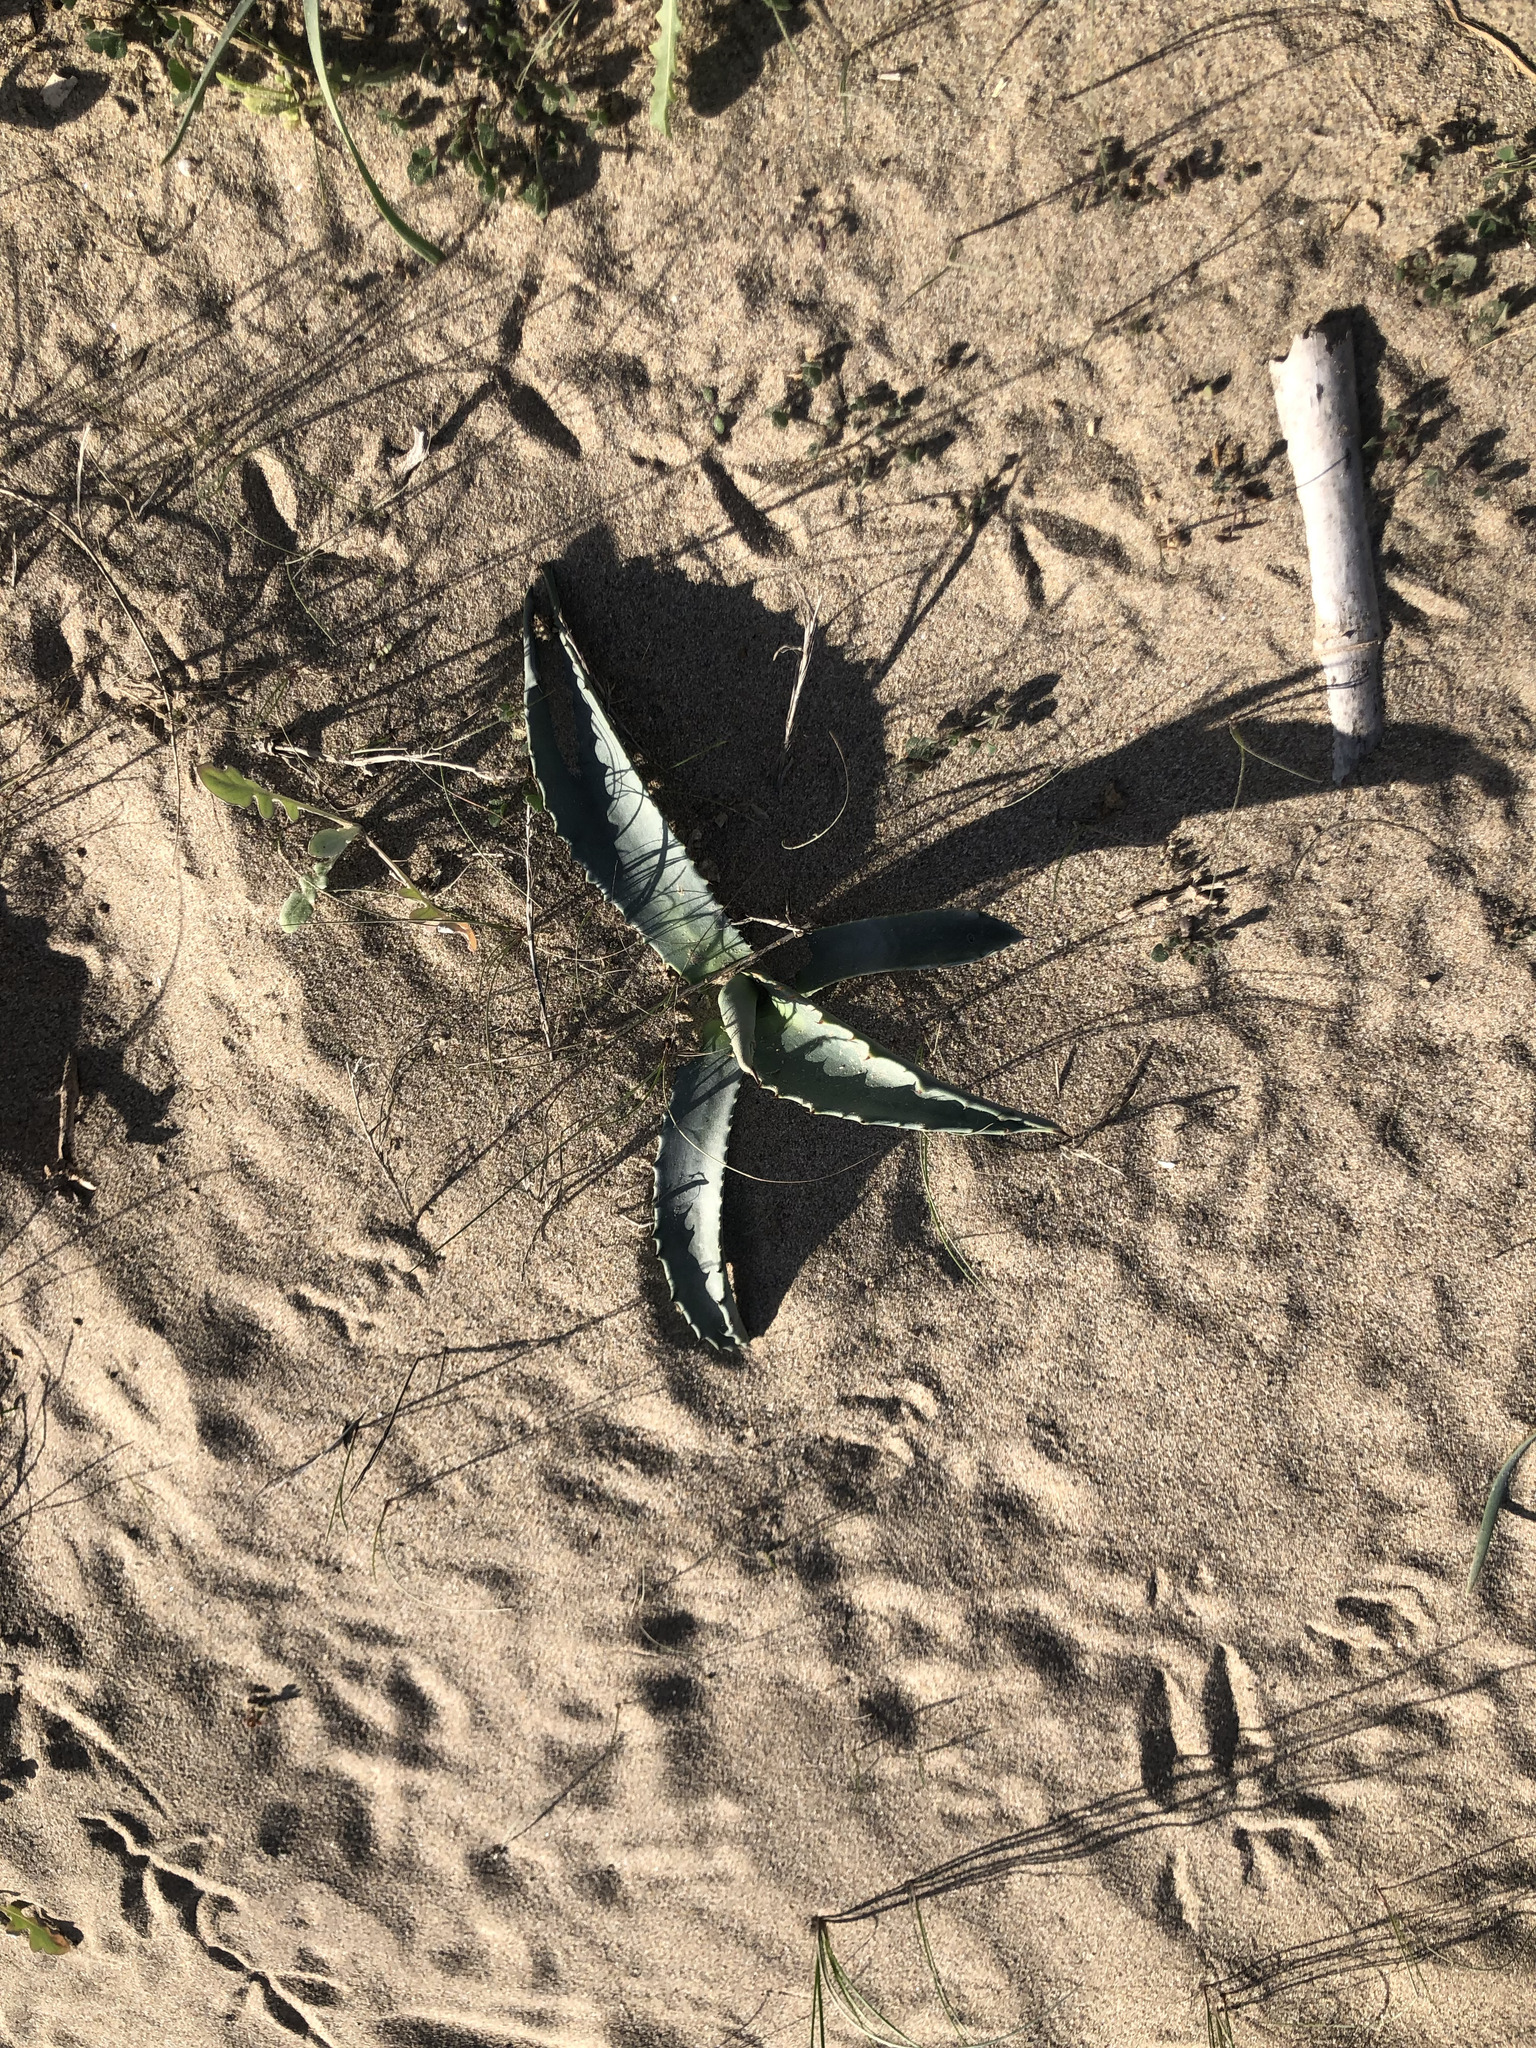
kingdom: Plantae
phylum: Tracheophyta
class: Liliopsida
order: Asparagales
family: Asparagaceae
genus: Agave
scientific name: Agave americana
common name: Centuryplant
